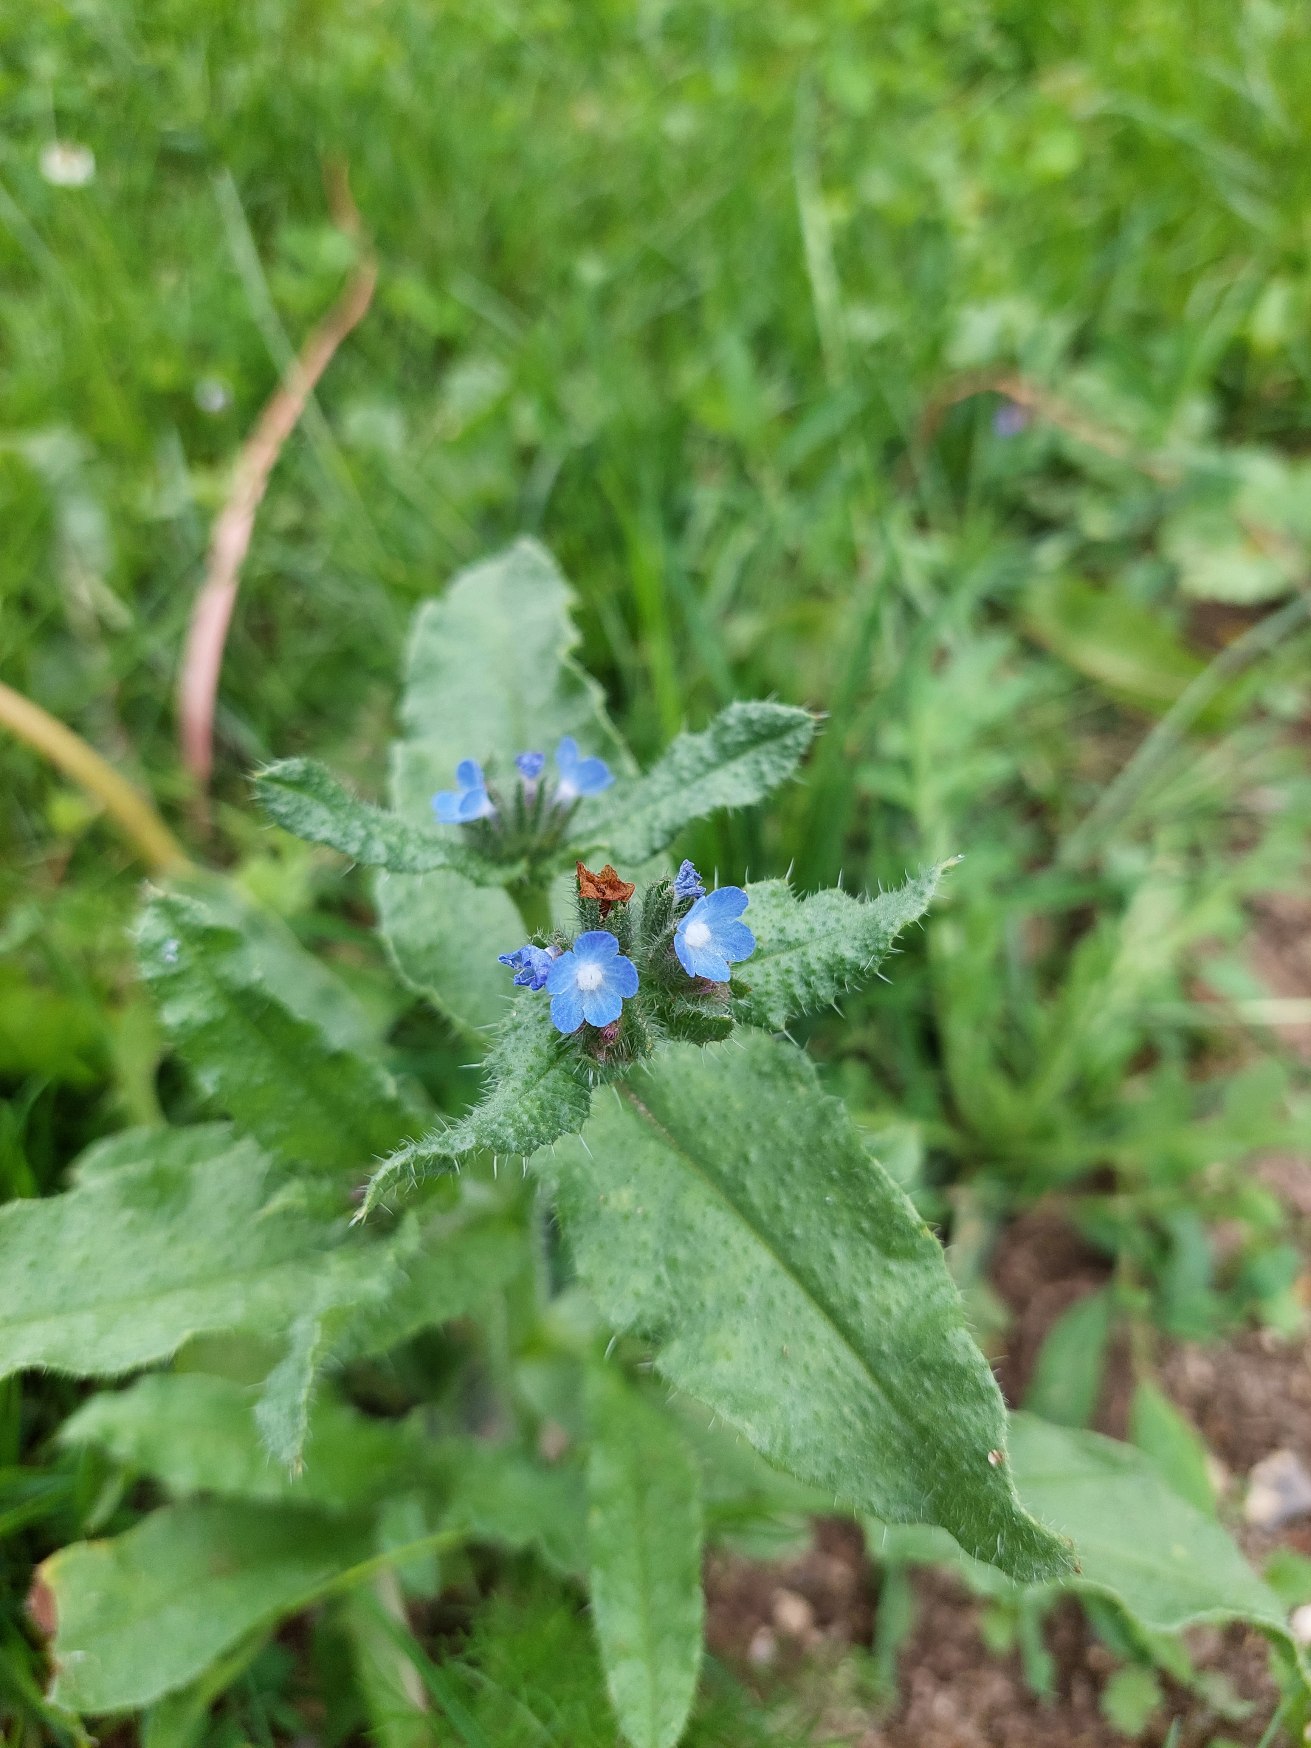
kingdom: Plantae
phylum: Tracheophyta
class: Magnoliopsida
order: Boraginales
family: Boraginaceae
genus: Lycopsis
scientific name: Lycopsis arvensis
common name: Krumhals
